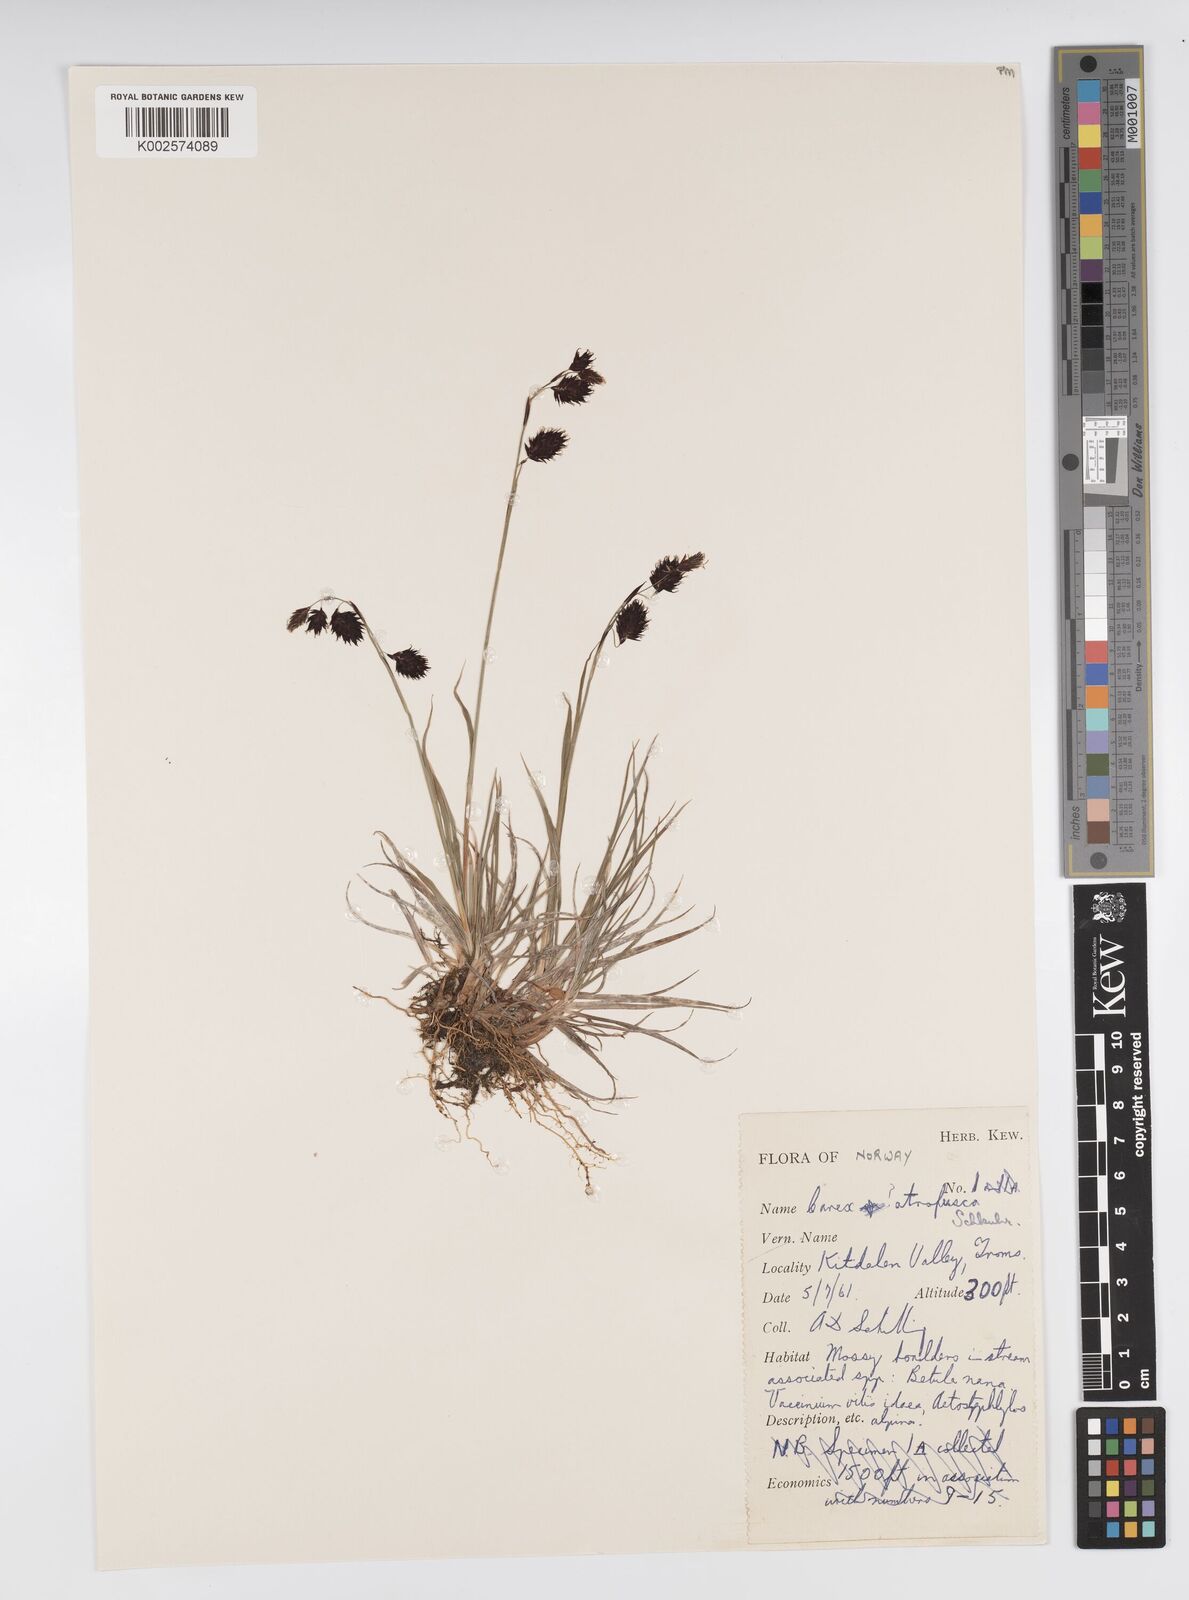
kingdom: Plantae
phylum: Tracheophyta
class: Liliopsida
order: Poales
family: Cyperaceae
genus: Carex
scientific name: Carex atrofusca
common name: Scorched alpine-sedge
